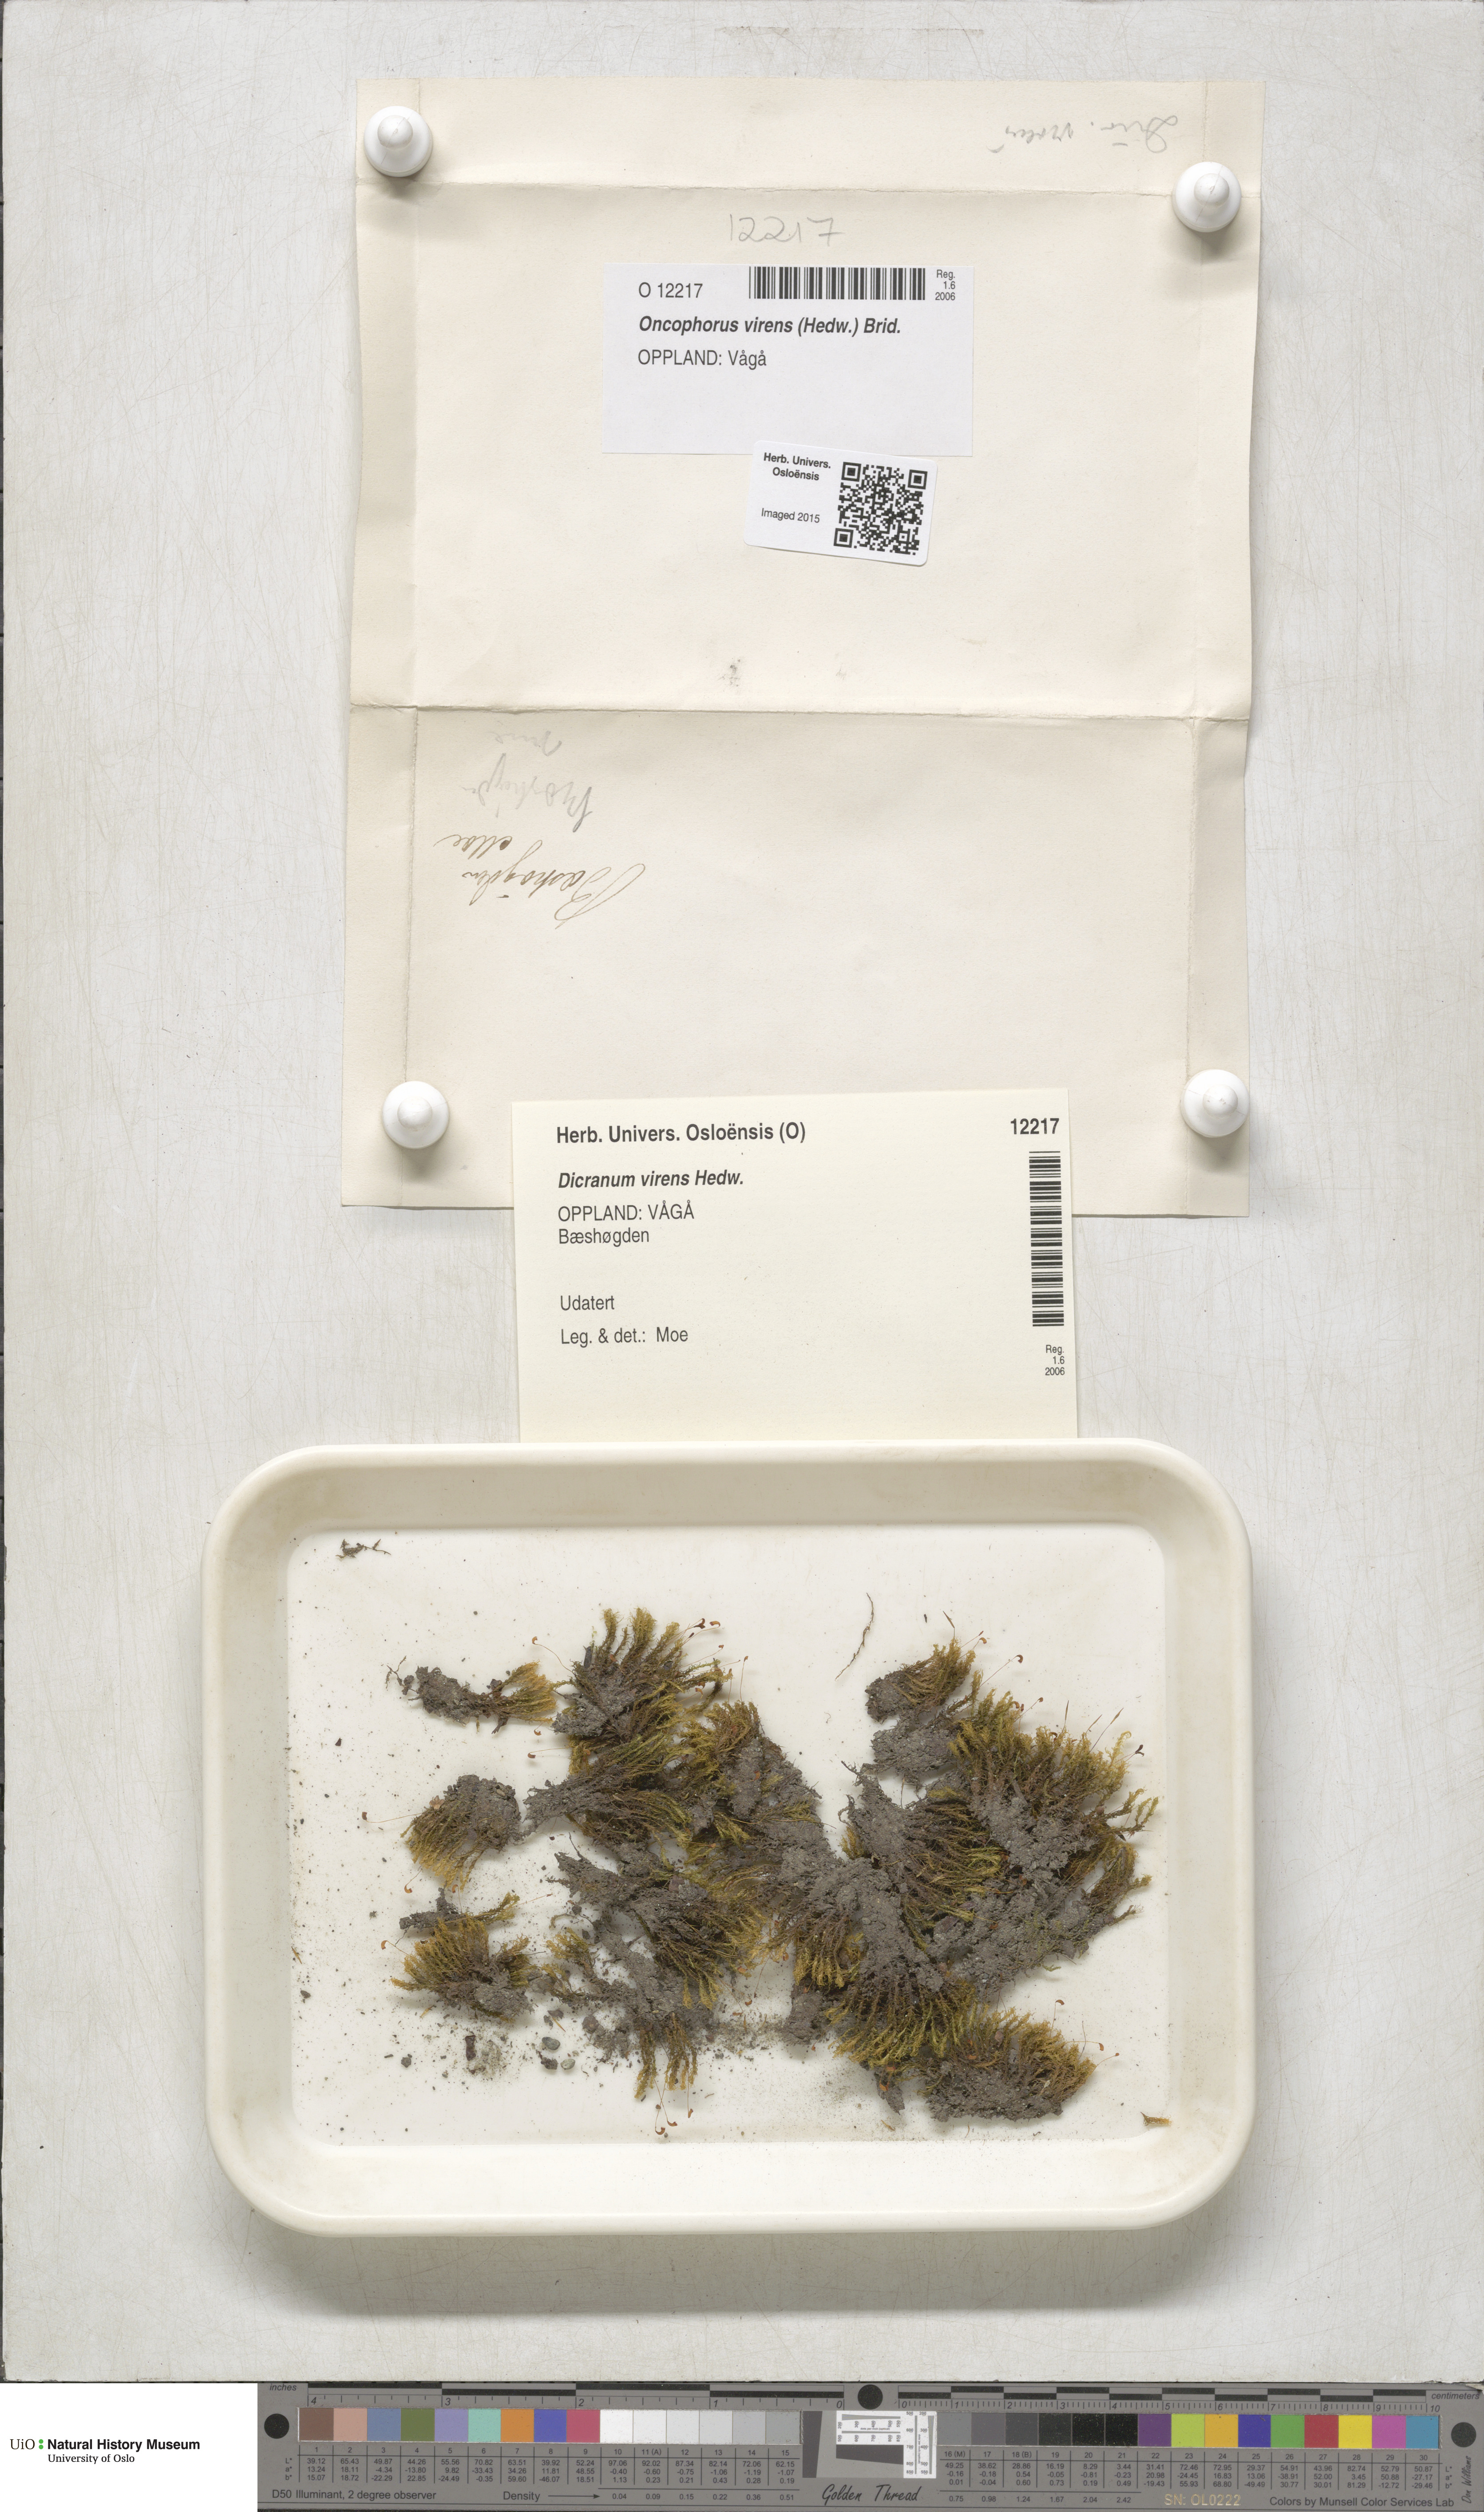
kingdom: Plantae
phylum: Bryophyta
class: Bryopsida
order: Dicranales
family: Rhabdoweisiaceae
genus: Oncophorus
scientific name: Oncophorus virens
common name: Green spur moss
